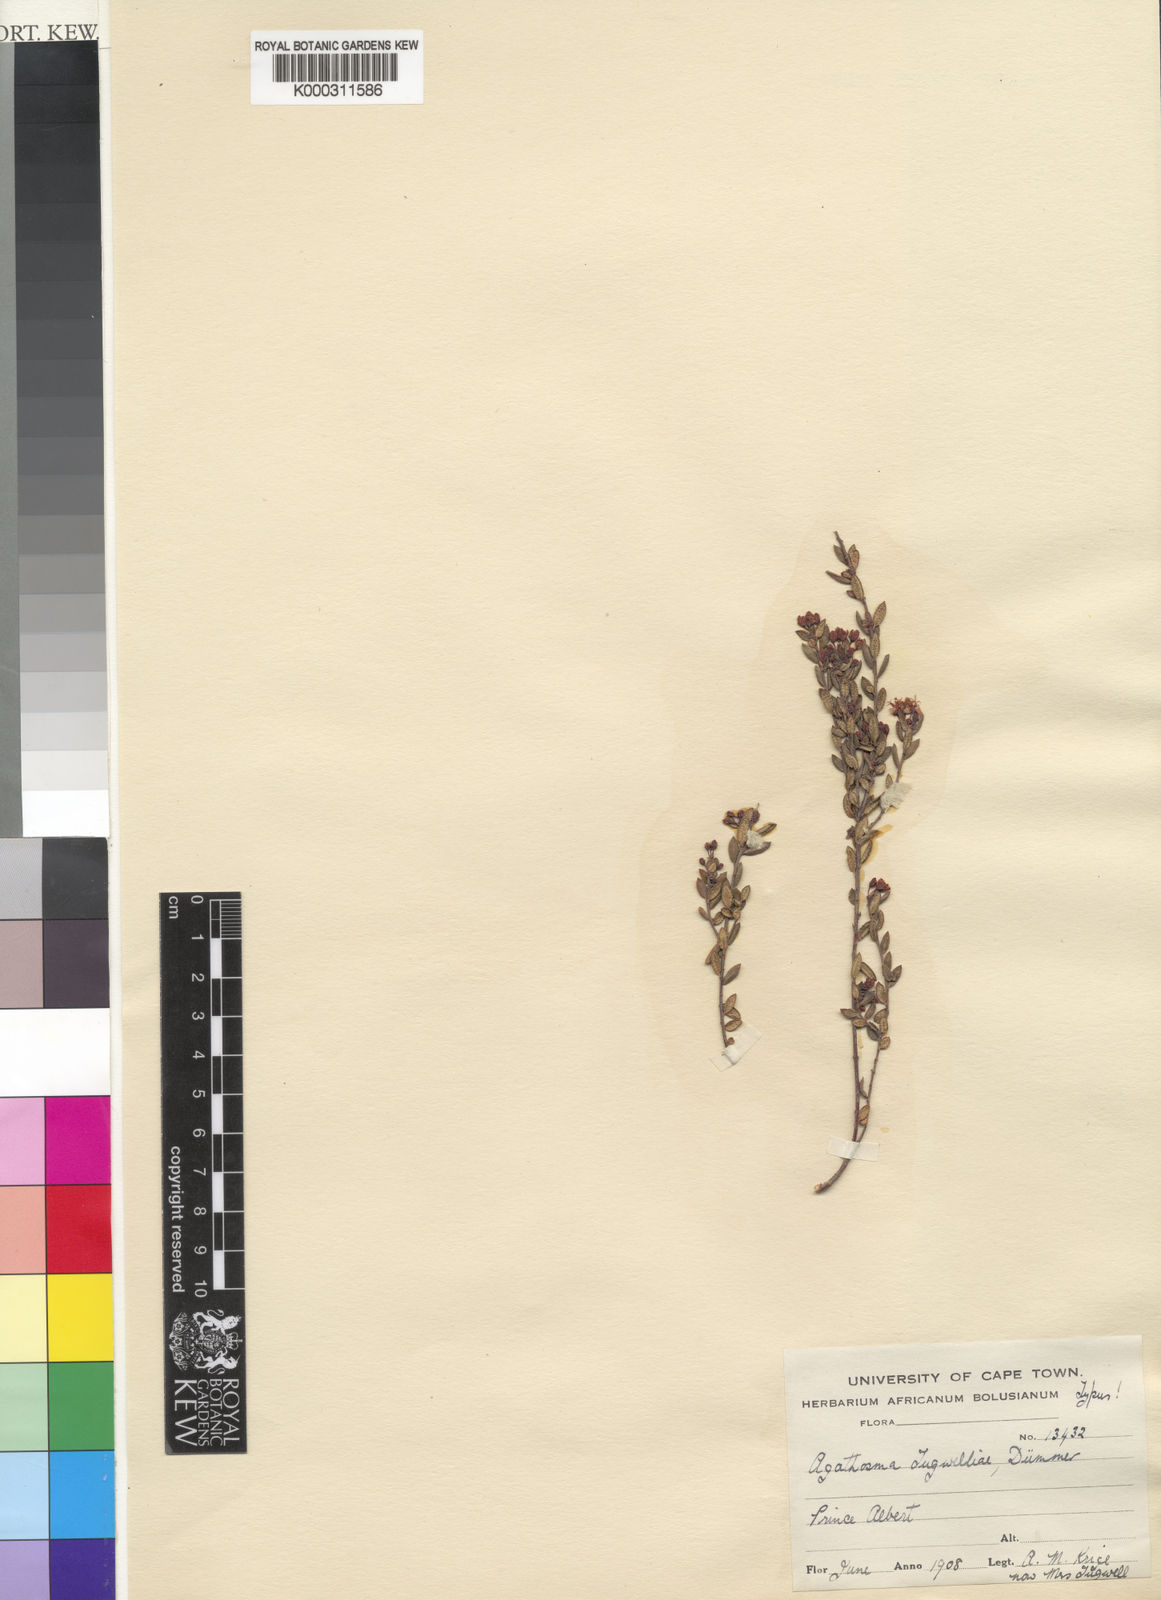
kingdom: Plantae
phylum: Tracheophyta
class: Magnoliopsida
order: Sapindales
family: Rutaceae
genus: Agathosma
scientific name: Agathosma mundii
